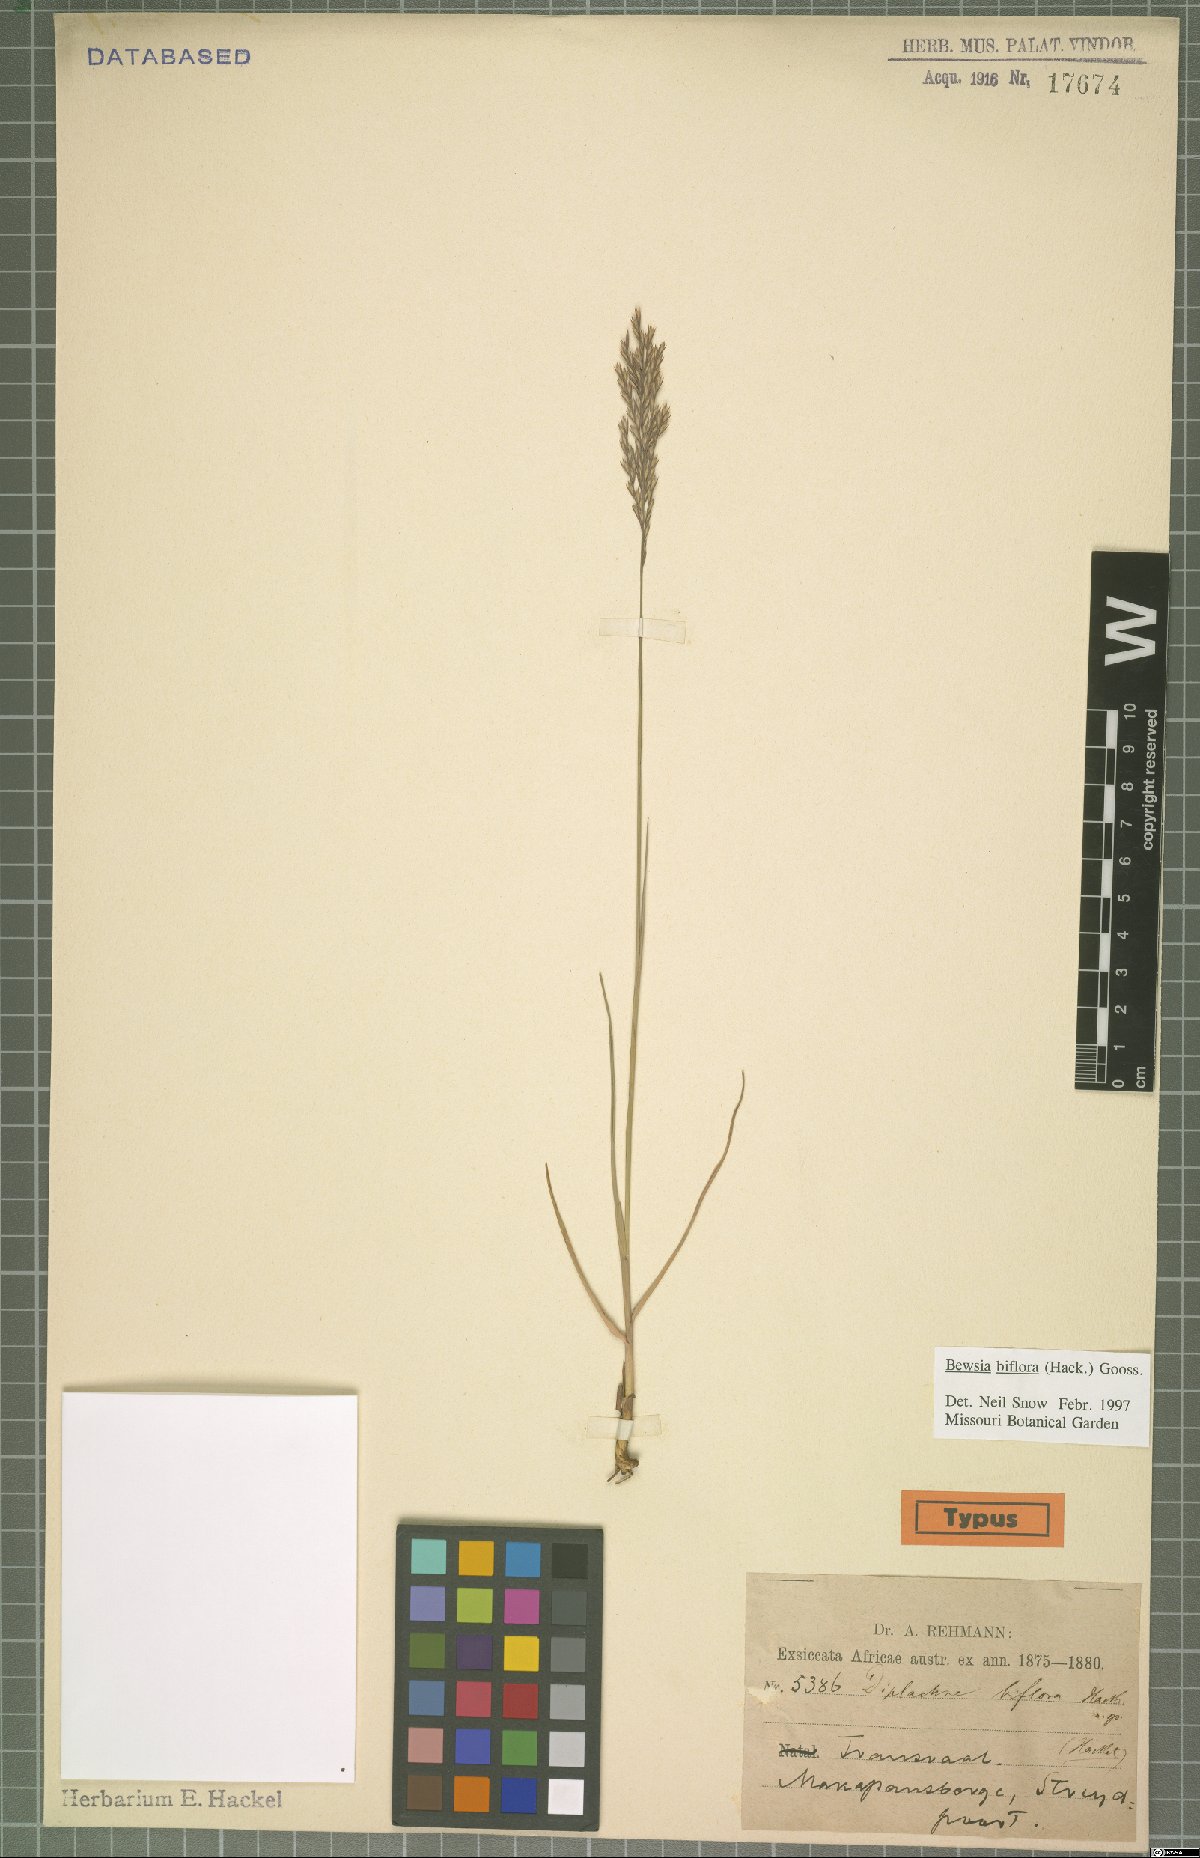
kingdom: Plantae
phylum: Tracheophyta
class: Liliopsida
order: Poales
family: Poaceae
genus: Bewsia
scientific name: Bewsia biflora
